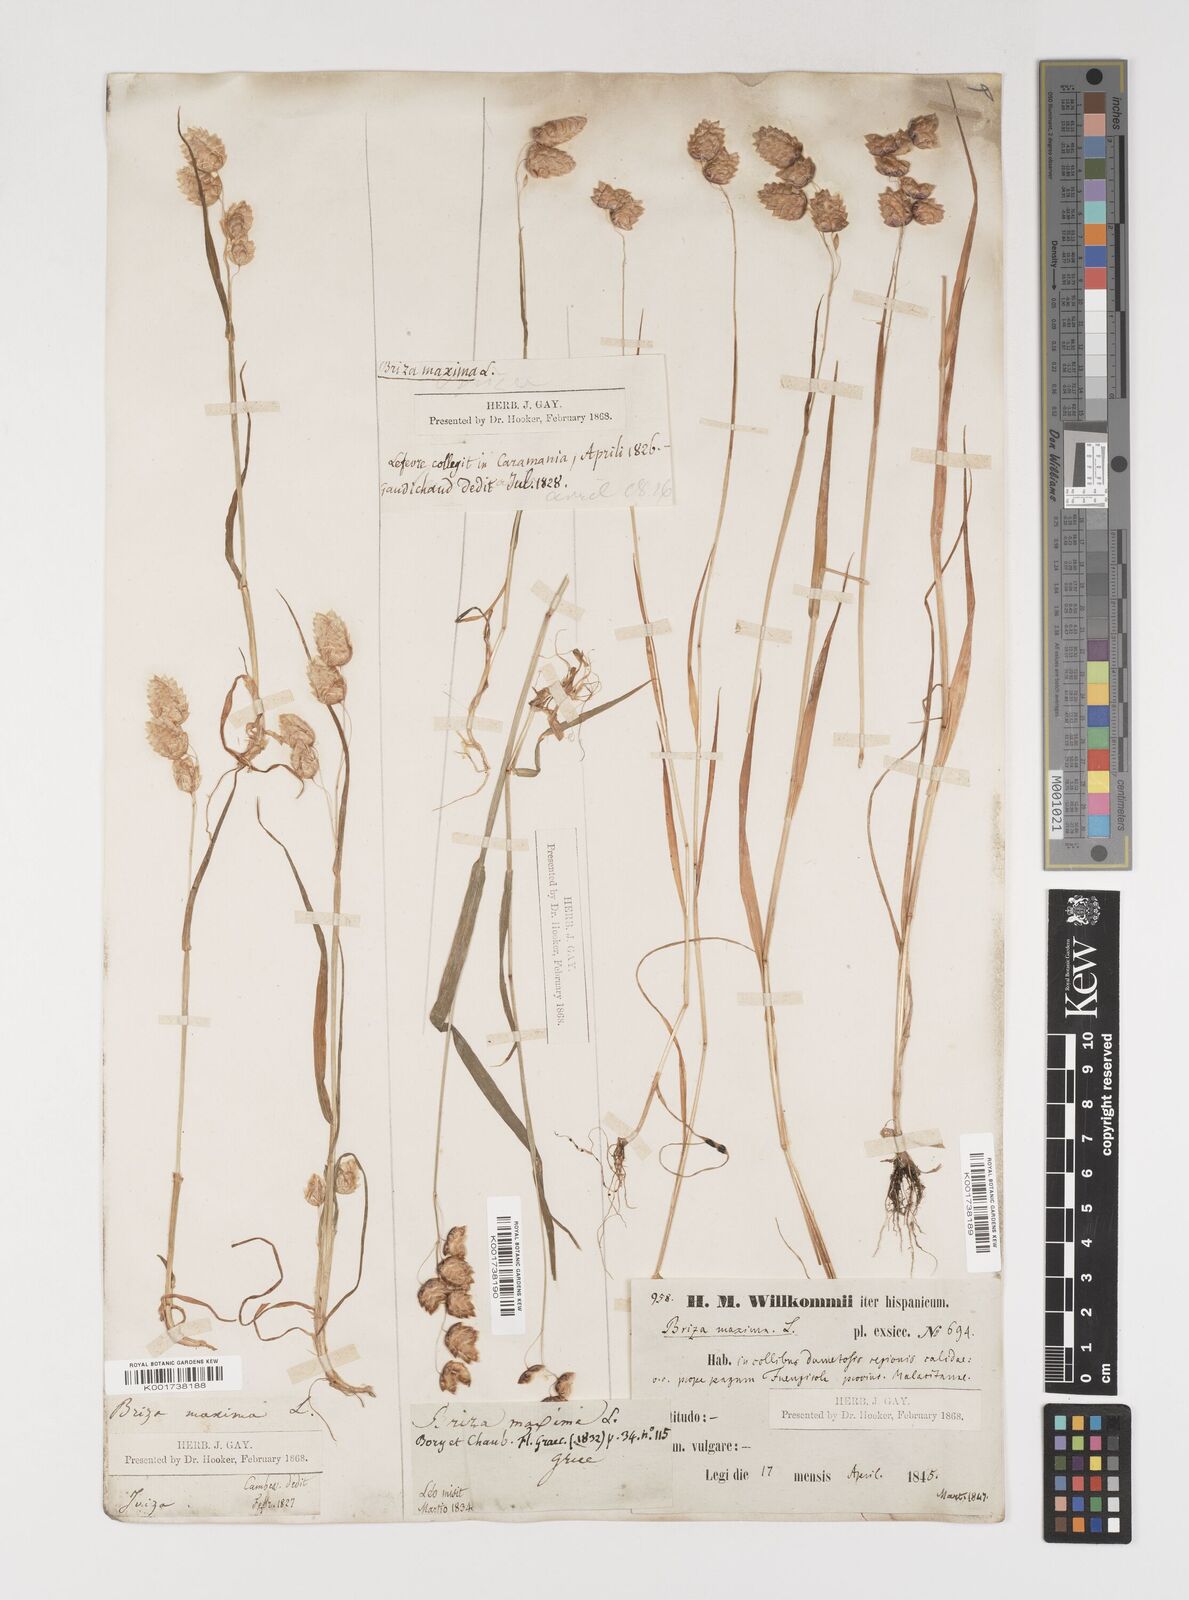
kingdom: Plantae
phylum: Tracheophyta
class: Liliopsida
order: Poales
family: Poaceae
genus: Briza
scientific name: Briza maxima
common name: Big quakinggrass
